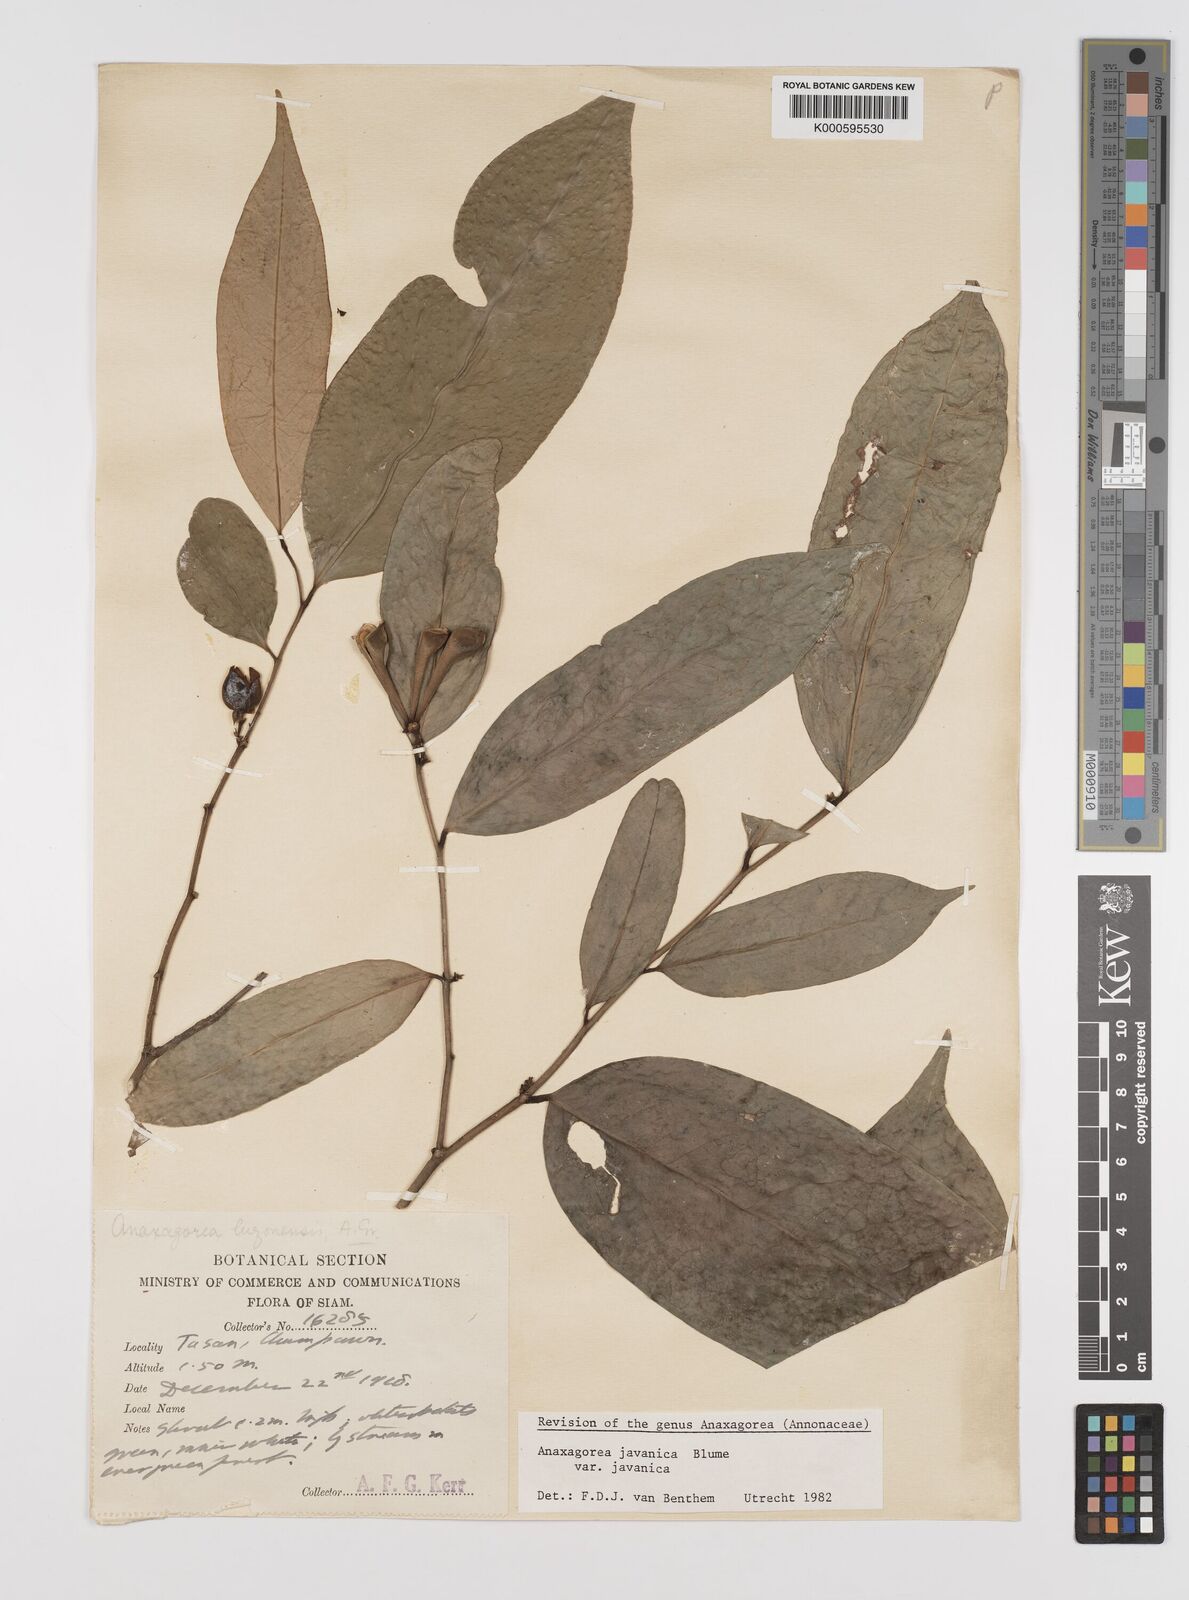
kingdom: Plantae
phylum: Tracheophyta
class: Magnoliopsida
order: Magnoliales
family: Annonaceae
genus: Anaxagorea
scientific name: Anaxagorea javanica
